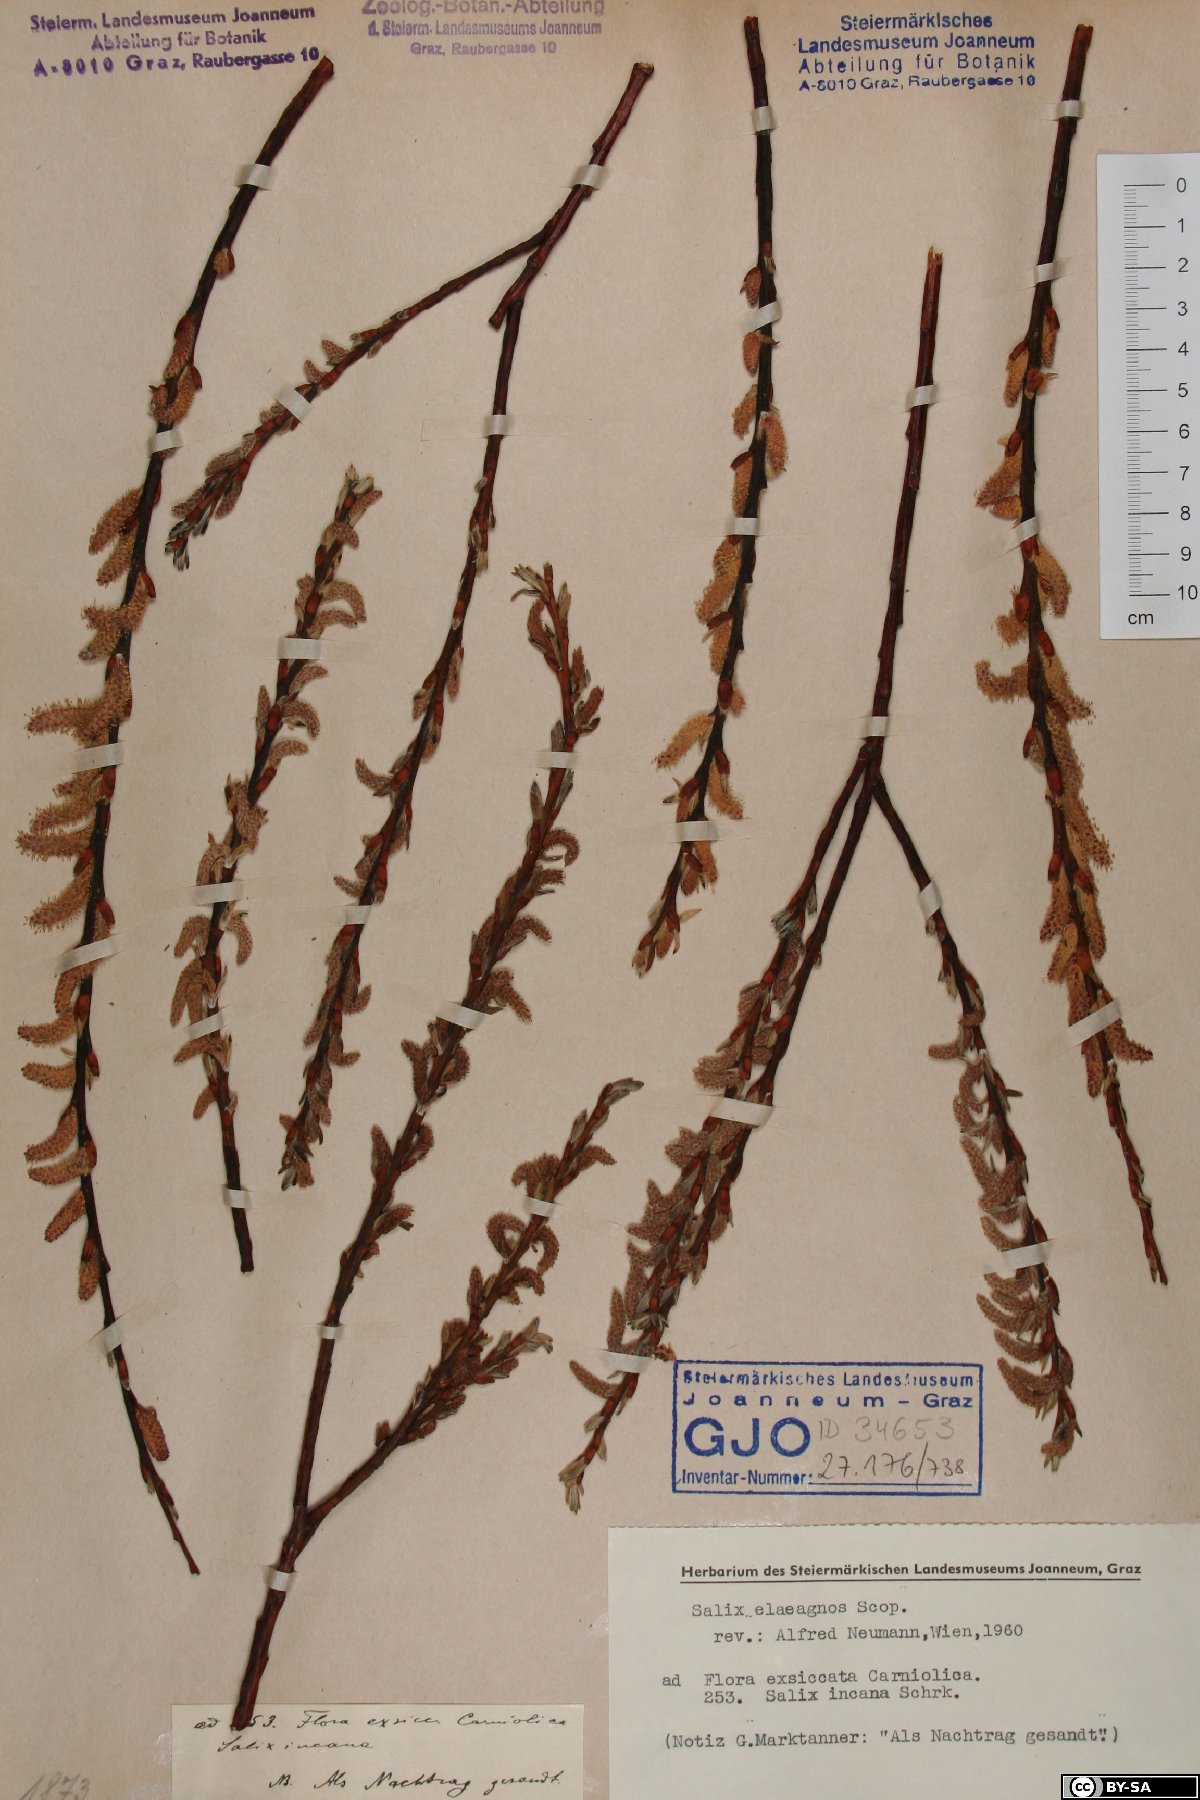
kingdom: Plantae
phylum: Tracheophyta
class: Magnoliopsida
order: Malpighiales
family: Salicaceae
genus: Salix
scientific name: Salix eleagnos
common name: Elaeagnus willow
